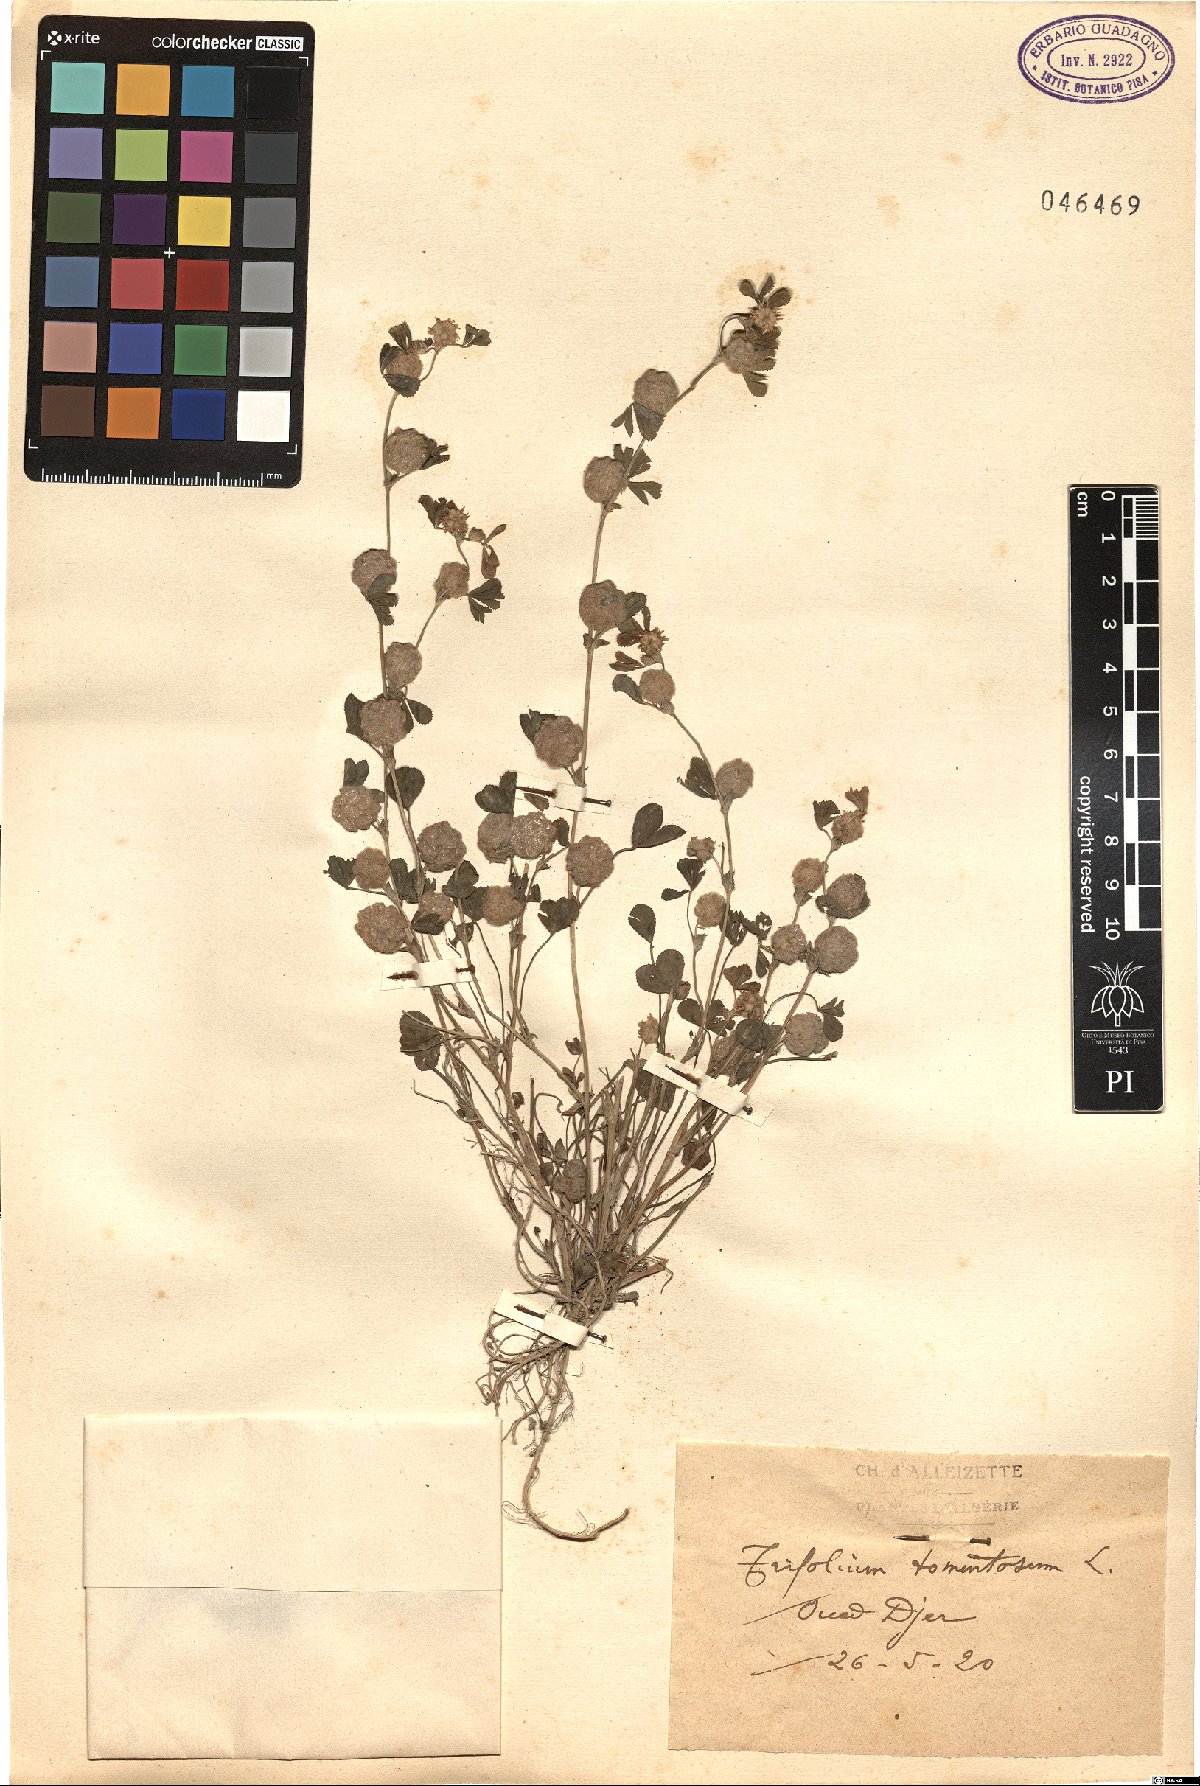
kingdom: Plantae
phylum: Tracheophyta
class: Magnoliopsida
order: Fabales
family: Fabaceae
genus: Trifolium
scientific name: Trifolium tomentosum
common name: Woolly clover
